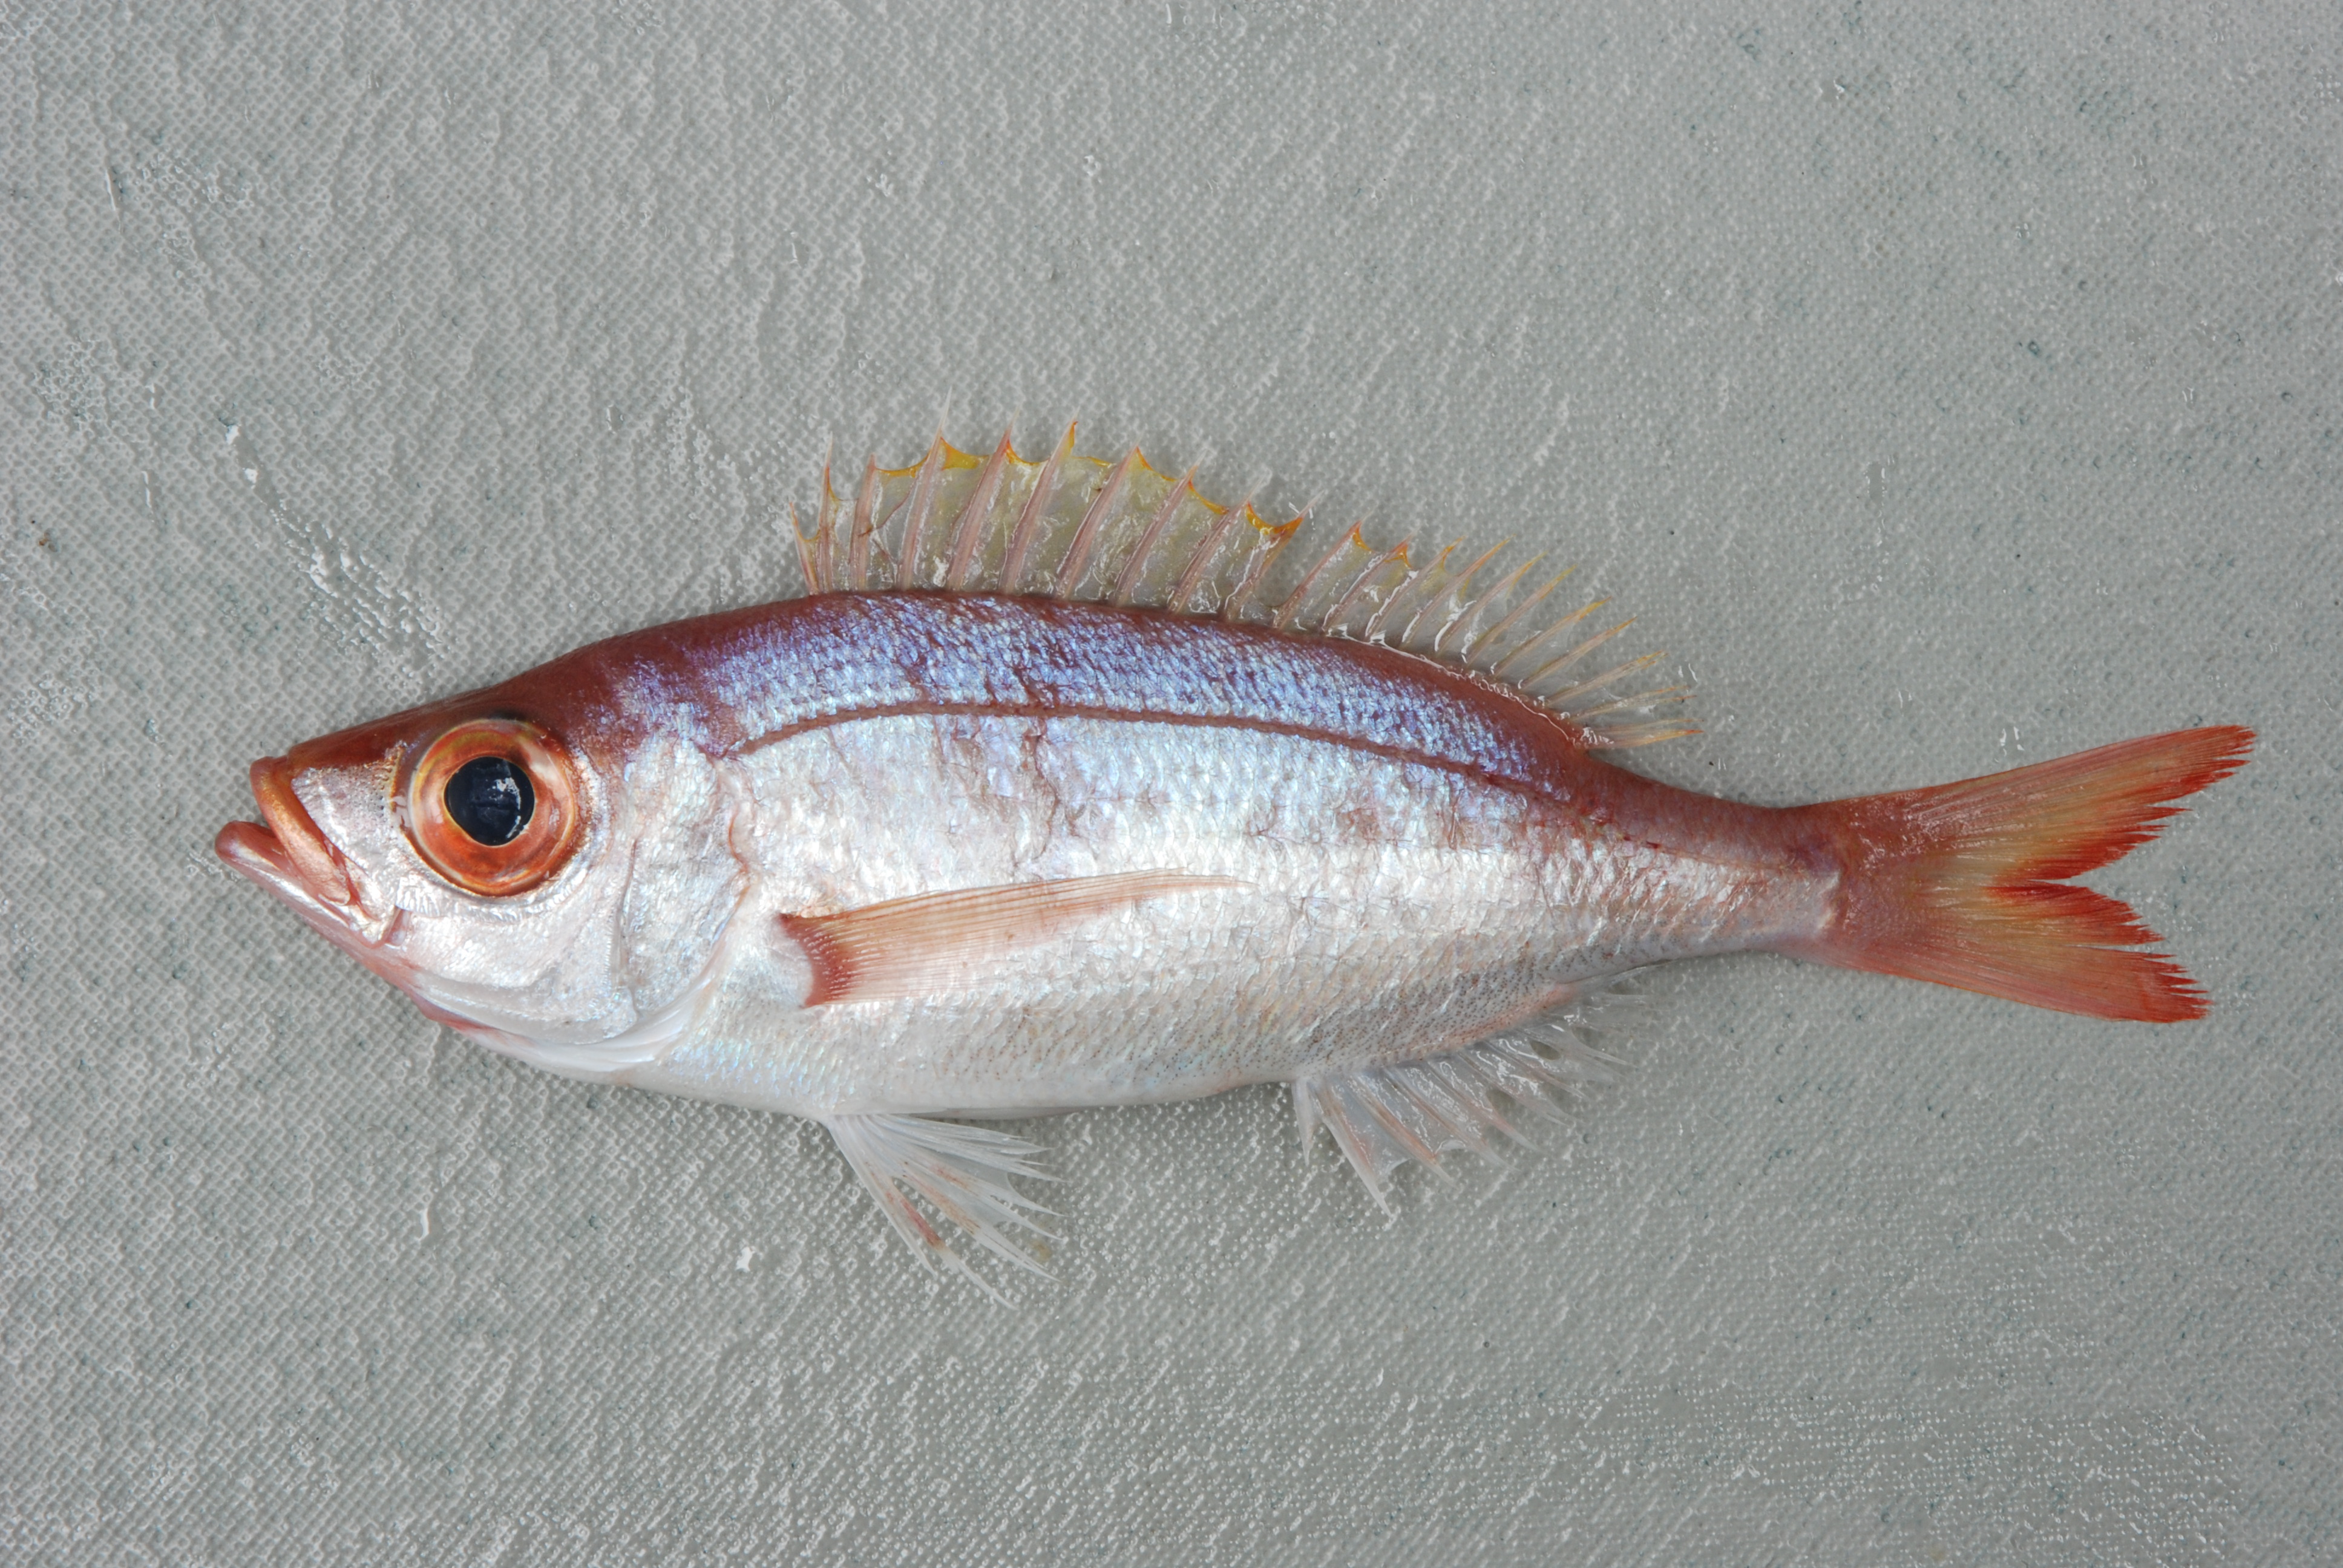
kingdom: Animalia
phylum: Chordata
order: Perciformes
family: Sparidae
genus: Spicara
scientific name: Spicara australis
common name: Picarel
